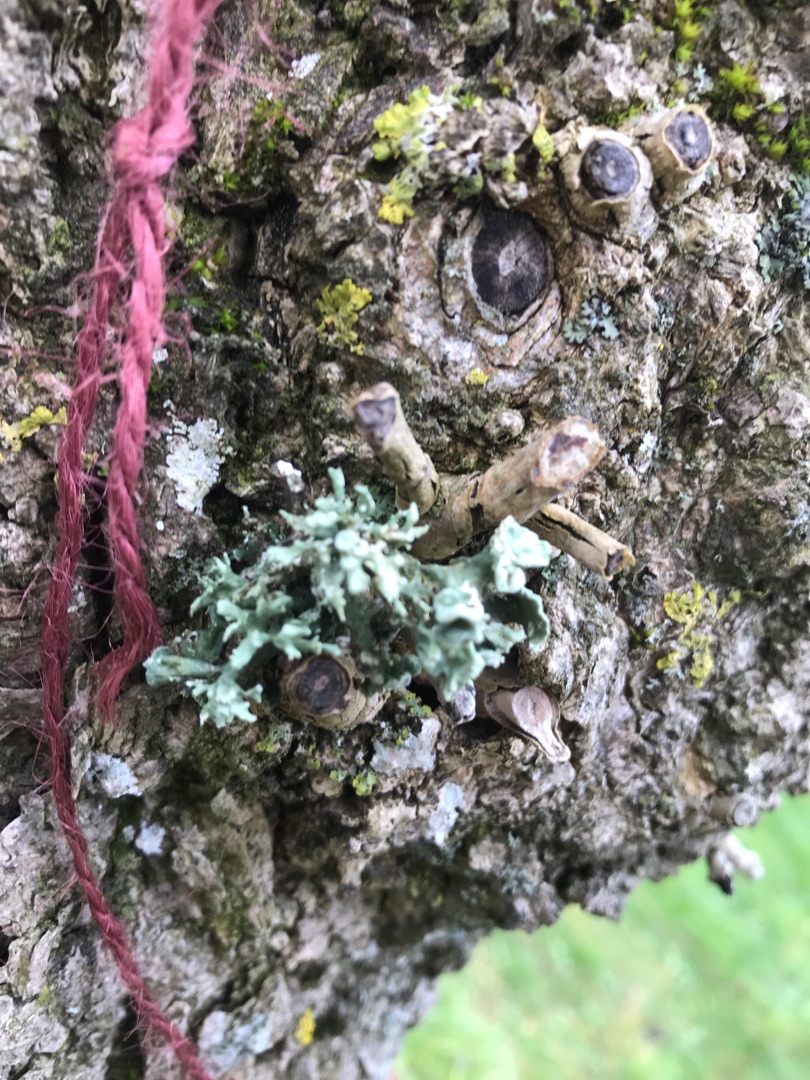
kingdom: Fungi
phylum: Ascomycota
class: Lecanoromycetes
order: Lecanorales
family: Ramalinaceae
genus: Ramalina
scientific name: Ramalina fastigiata
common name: Tue-grenlav
